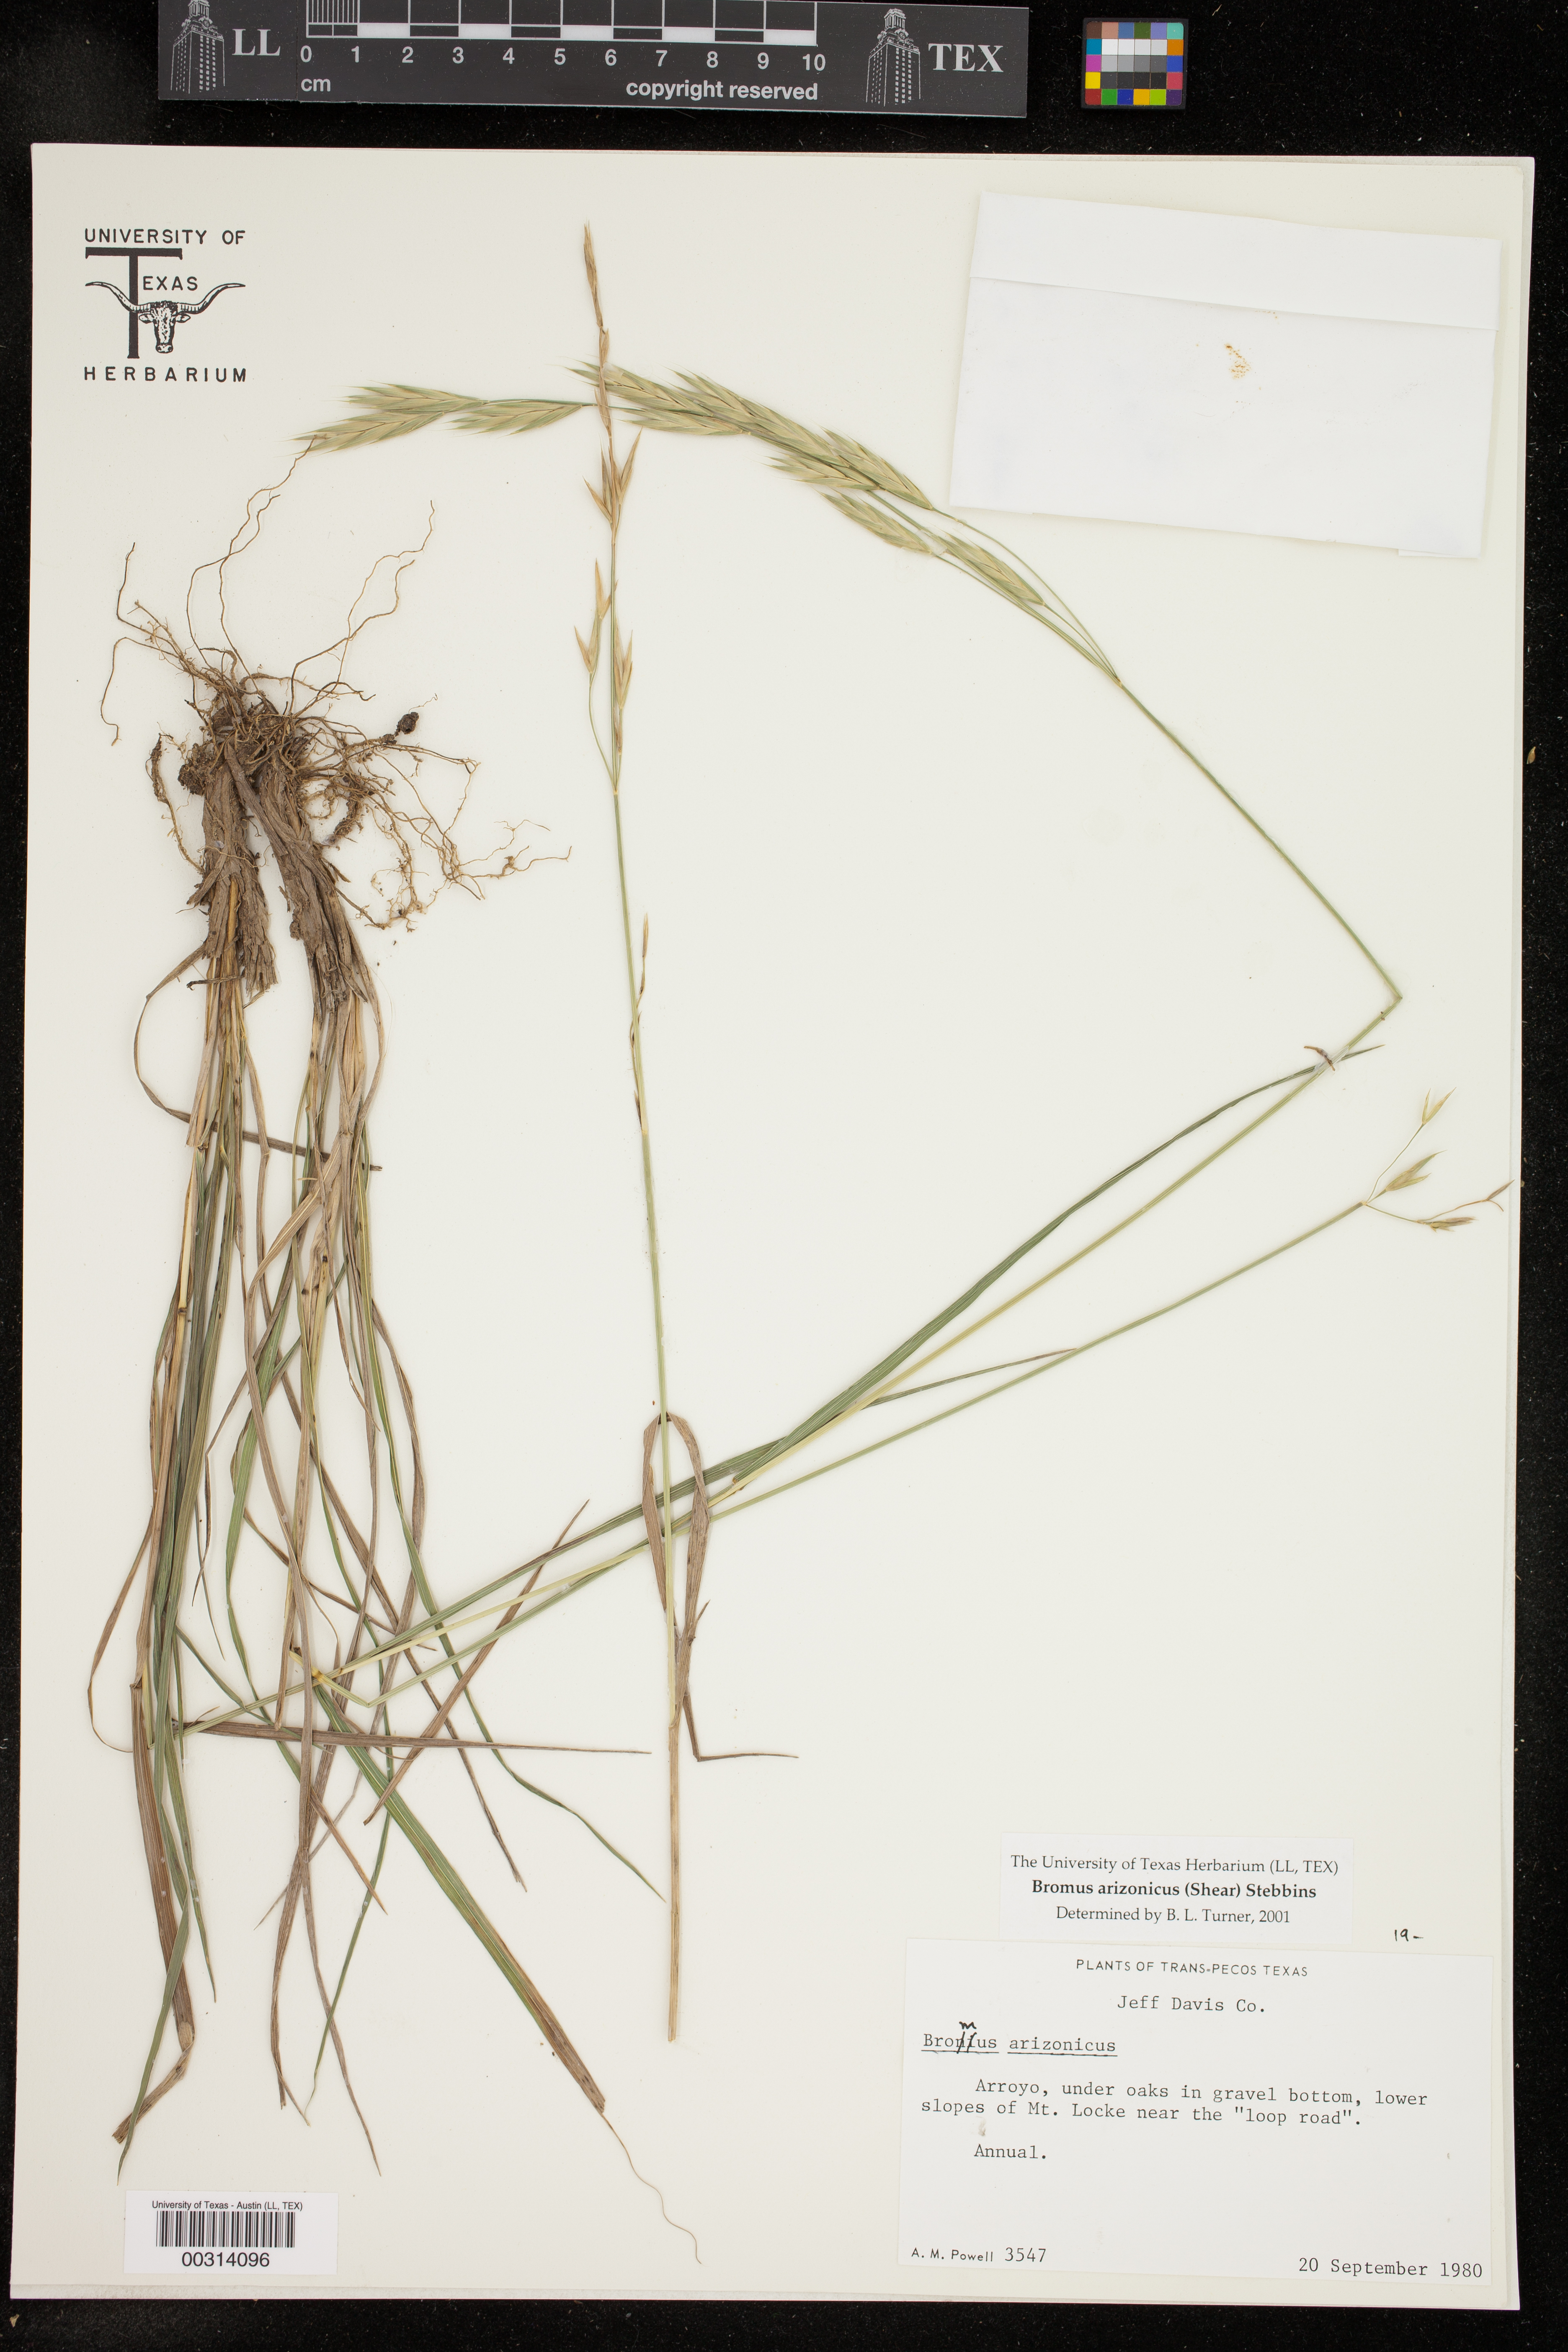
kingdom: Plantae
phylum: Tracheophyta
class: Liliopsida
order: Poales
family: Poaceae
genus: Bromus
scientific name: Bromus arizonicus
